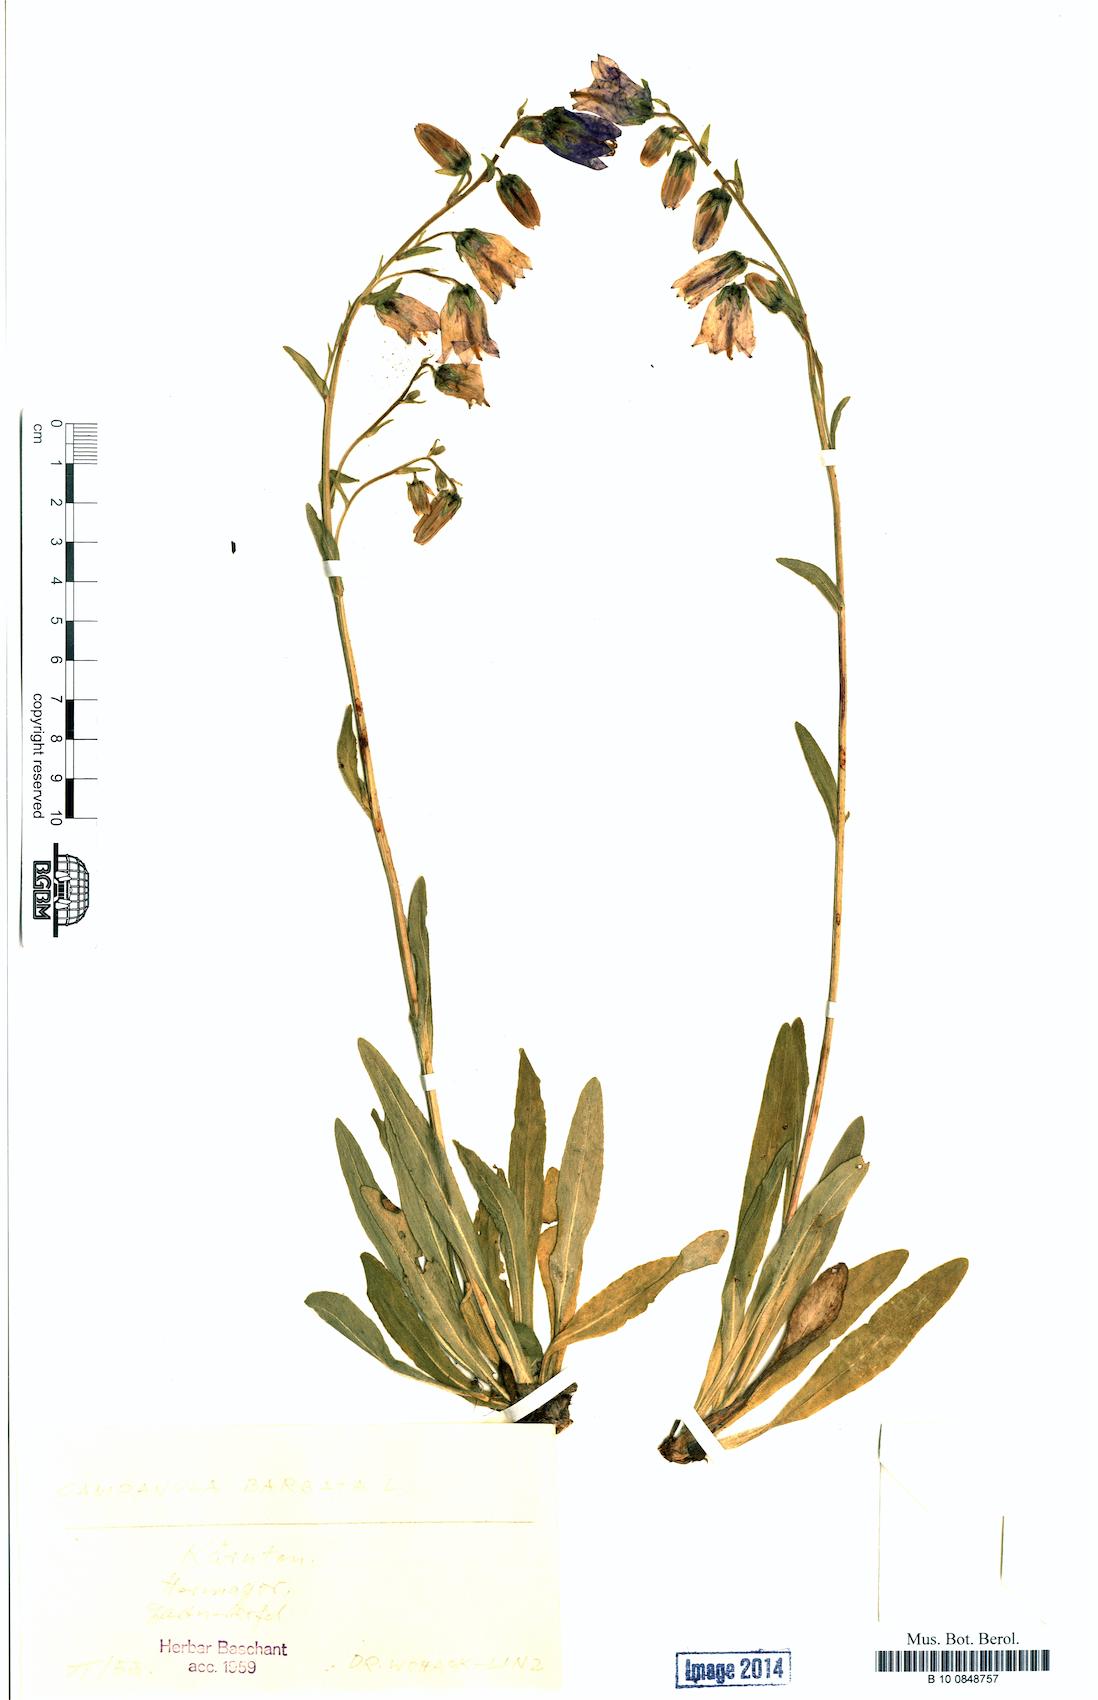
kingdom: Plantae
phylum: Tracheophyta
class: Magnoliopsida
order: Asterales
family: Campanulaceae
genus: Campanula
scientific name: Campanula barbata
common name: Bearded bellflower
